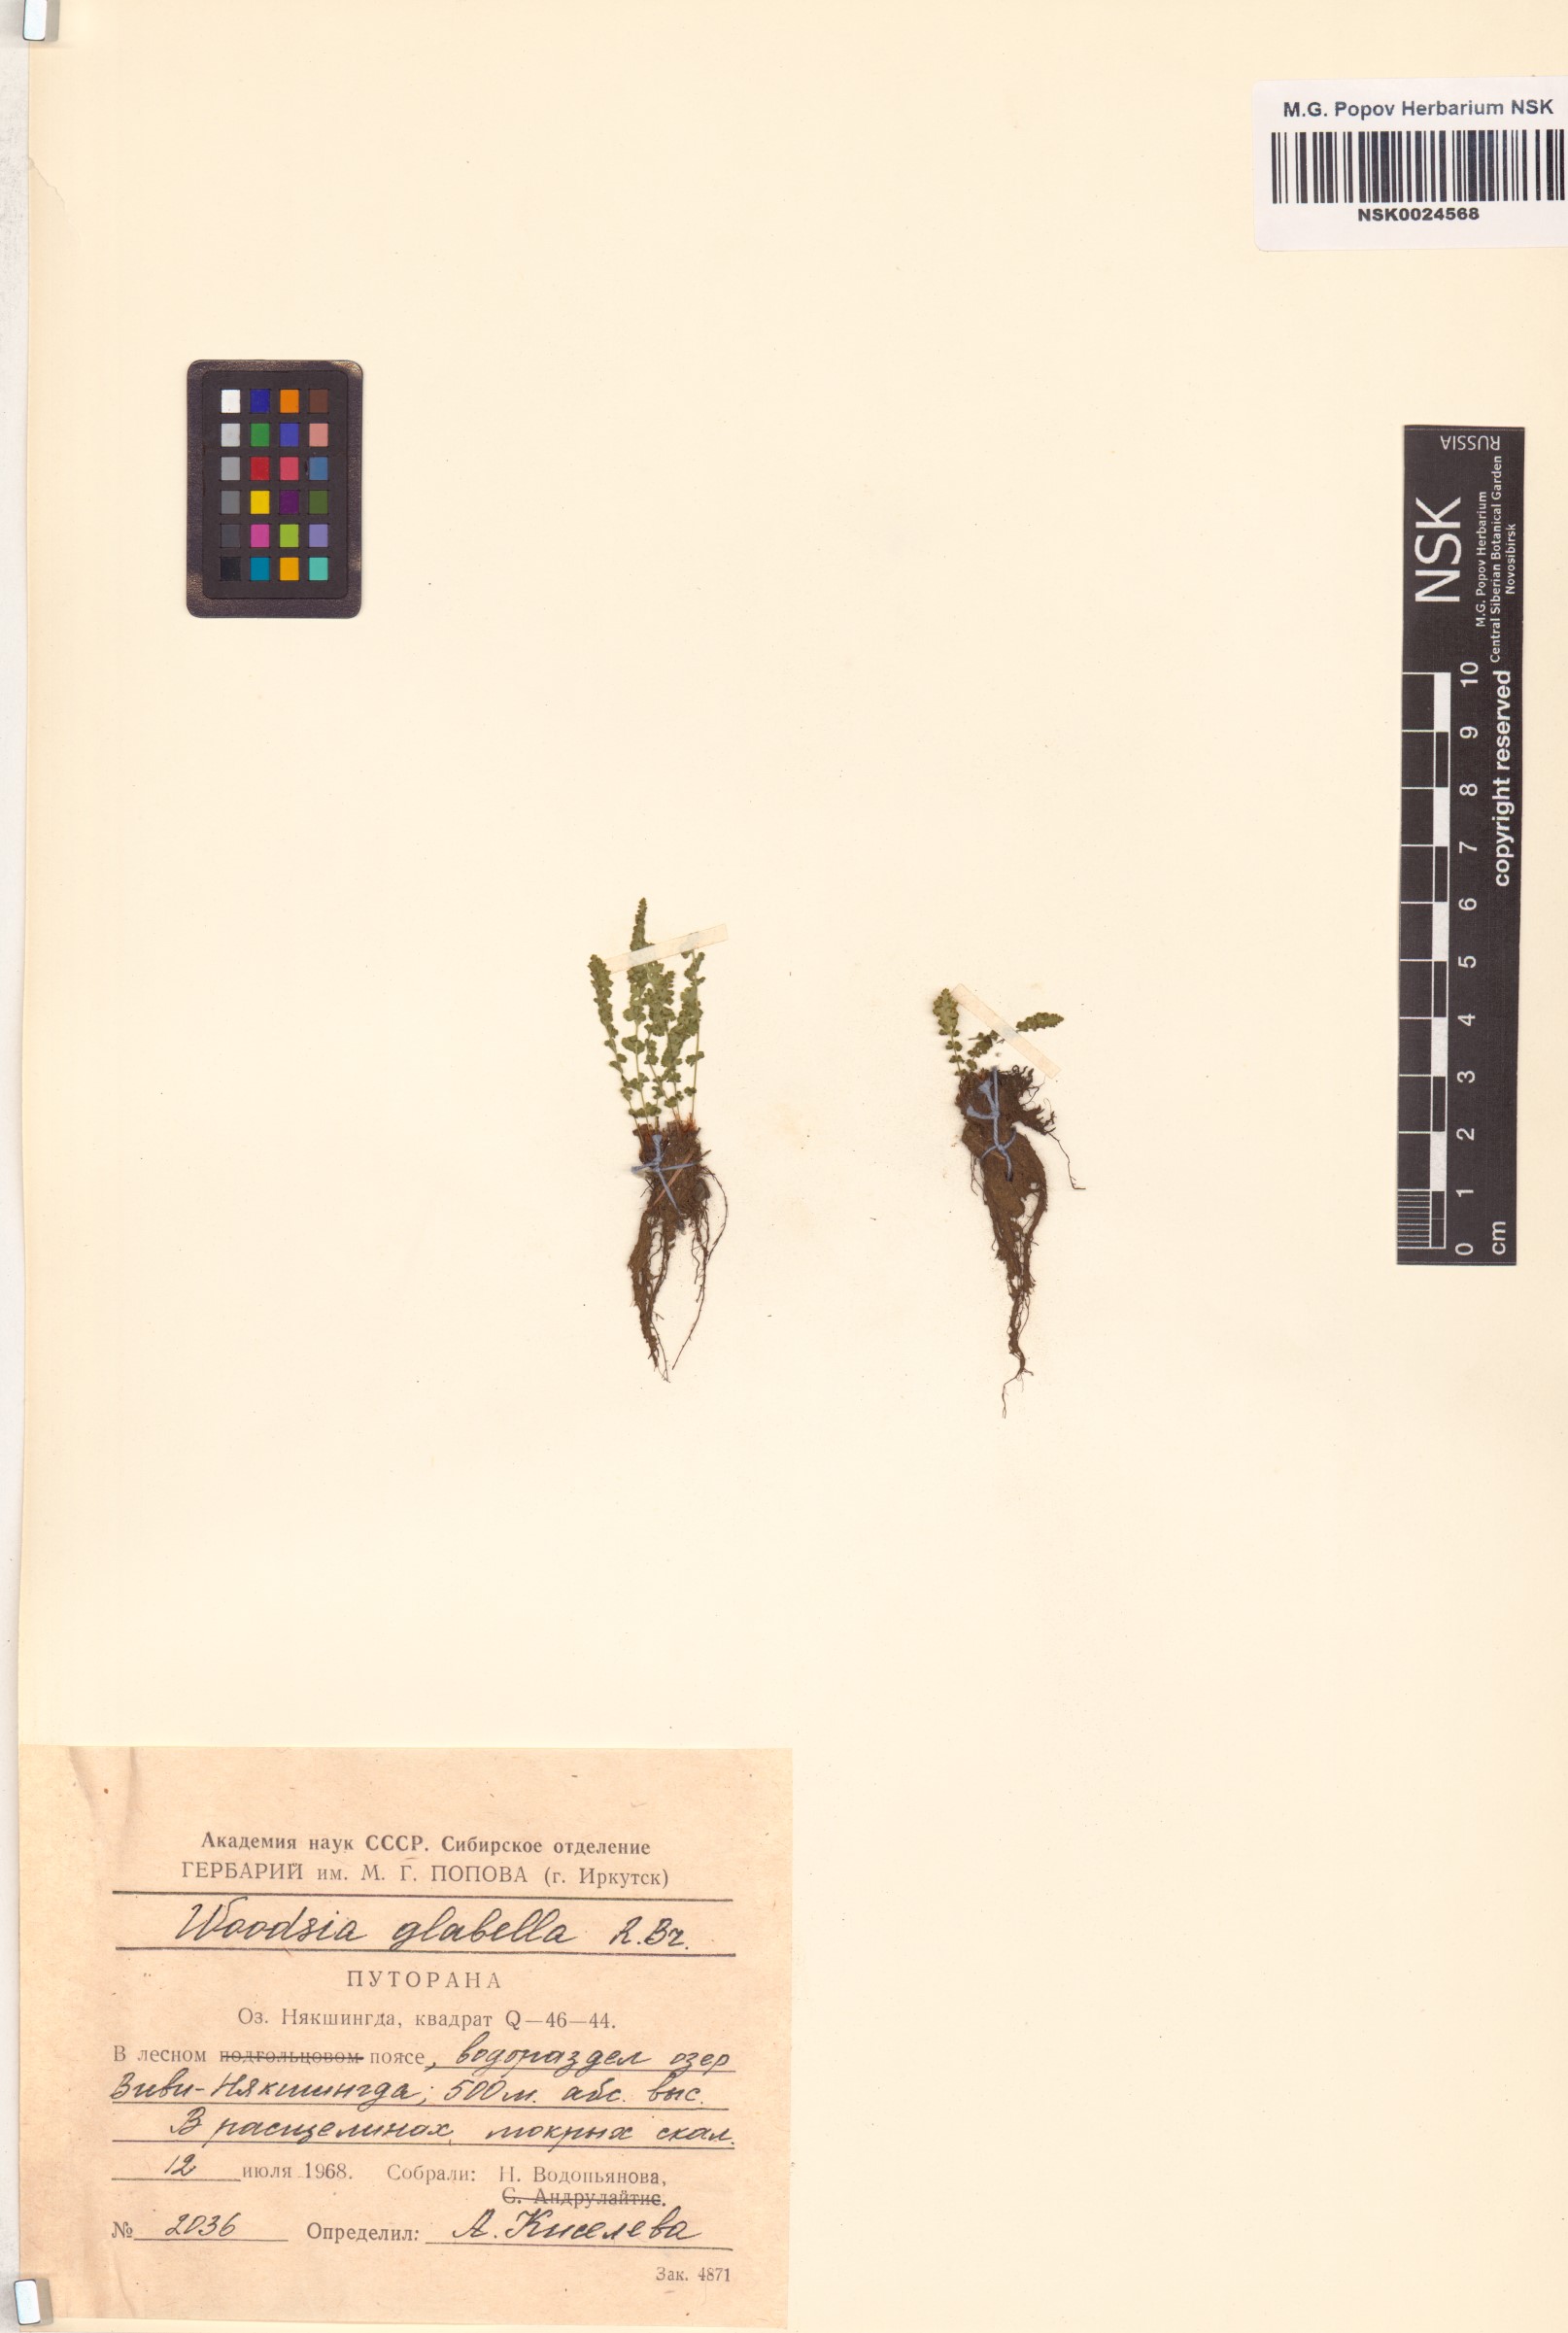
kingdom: Plantae
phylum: Tracheophyta
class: Polypodiopsida
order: Polypodiales
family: Woodsiaceae
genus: Woodsia
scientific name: Woodsia glabella
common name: Smooth woodsia
